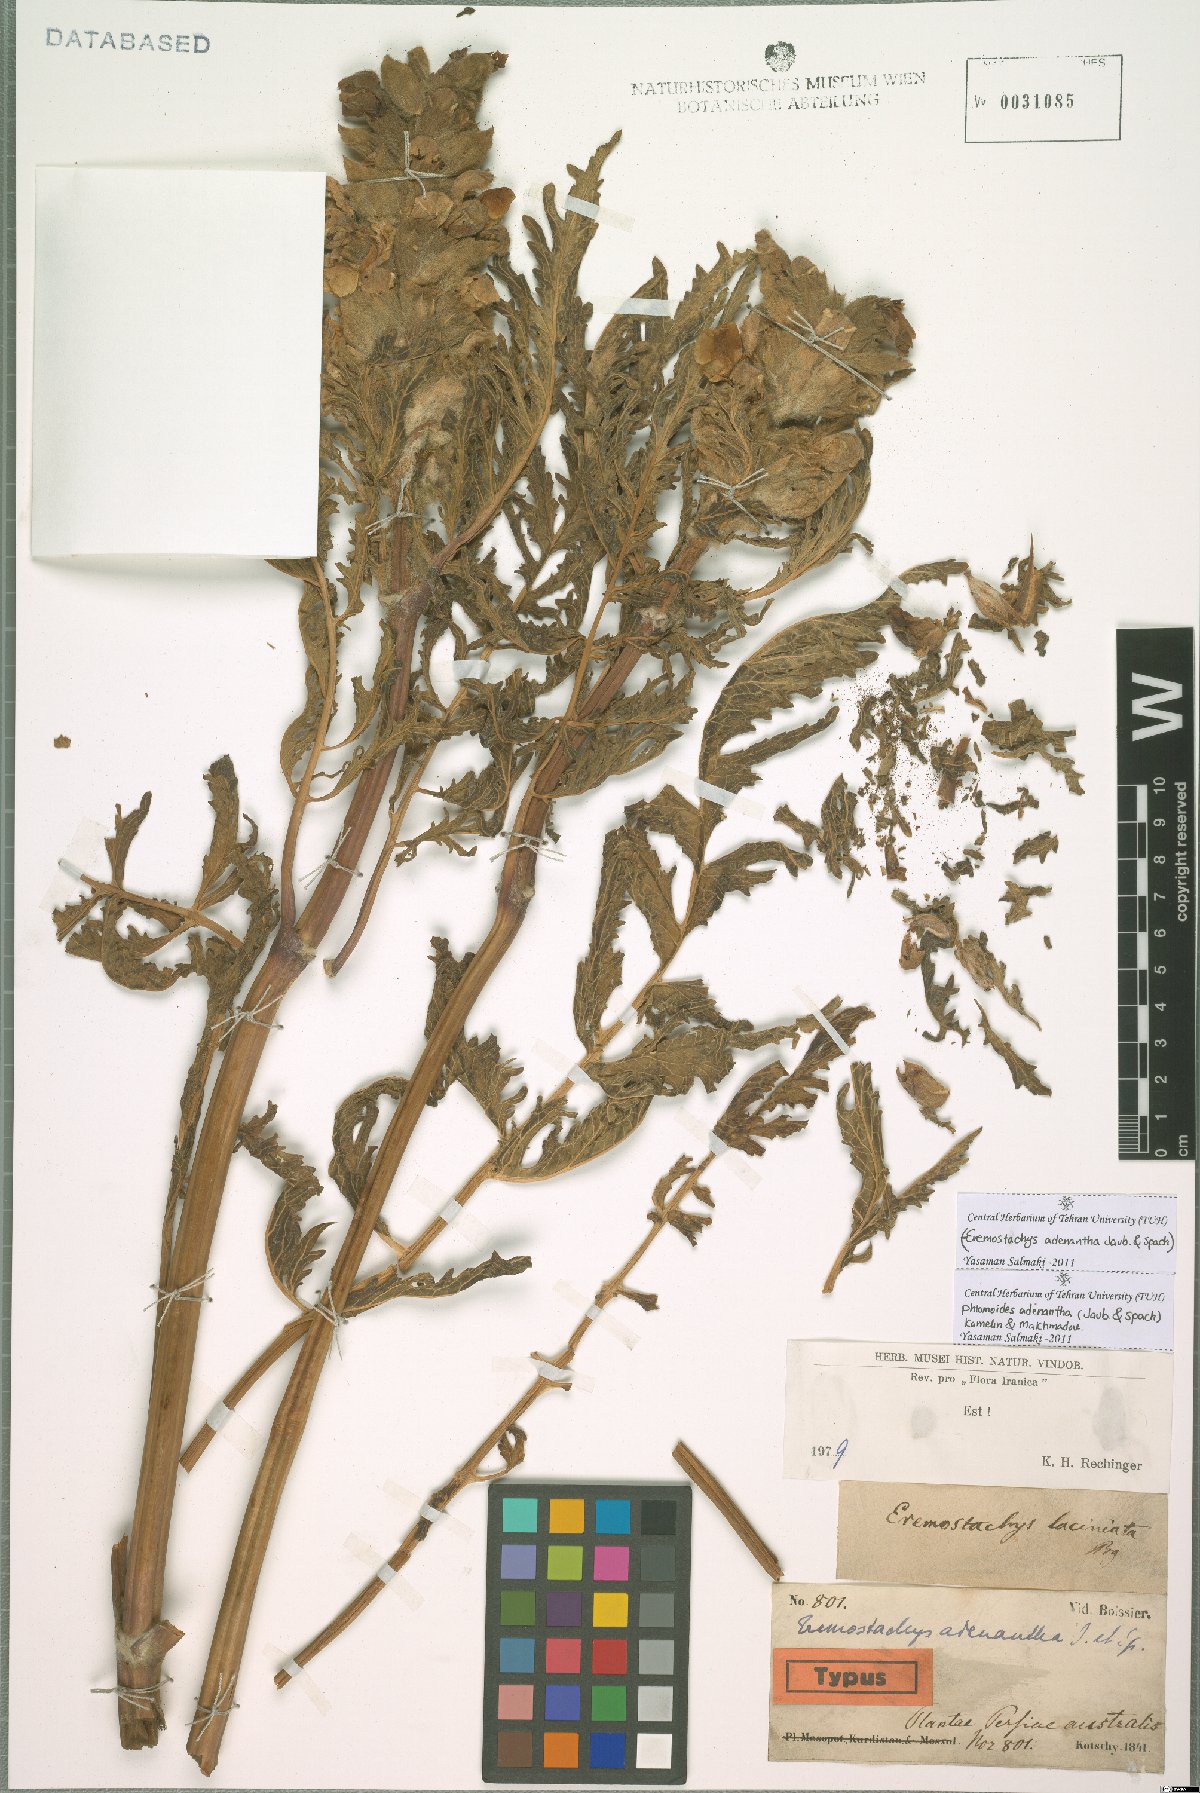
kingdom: Plantae
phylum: Tracheophyta
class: Magnoliopsida
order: Lamiales
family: Lamiaceae
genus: Phlomoides
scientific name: Phlomoides adenantha
